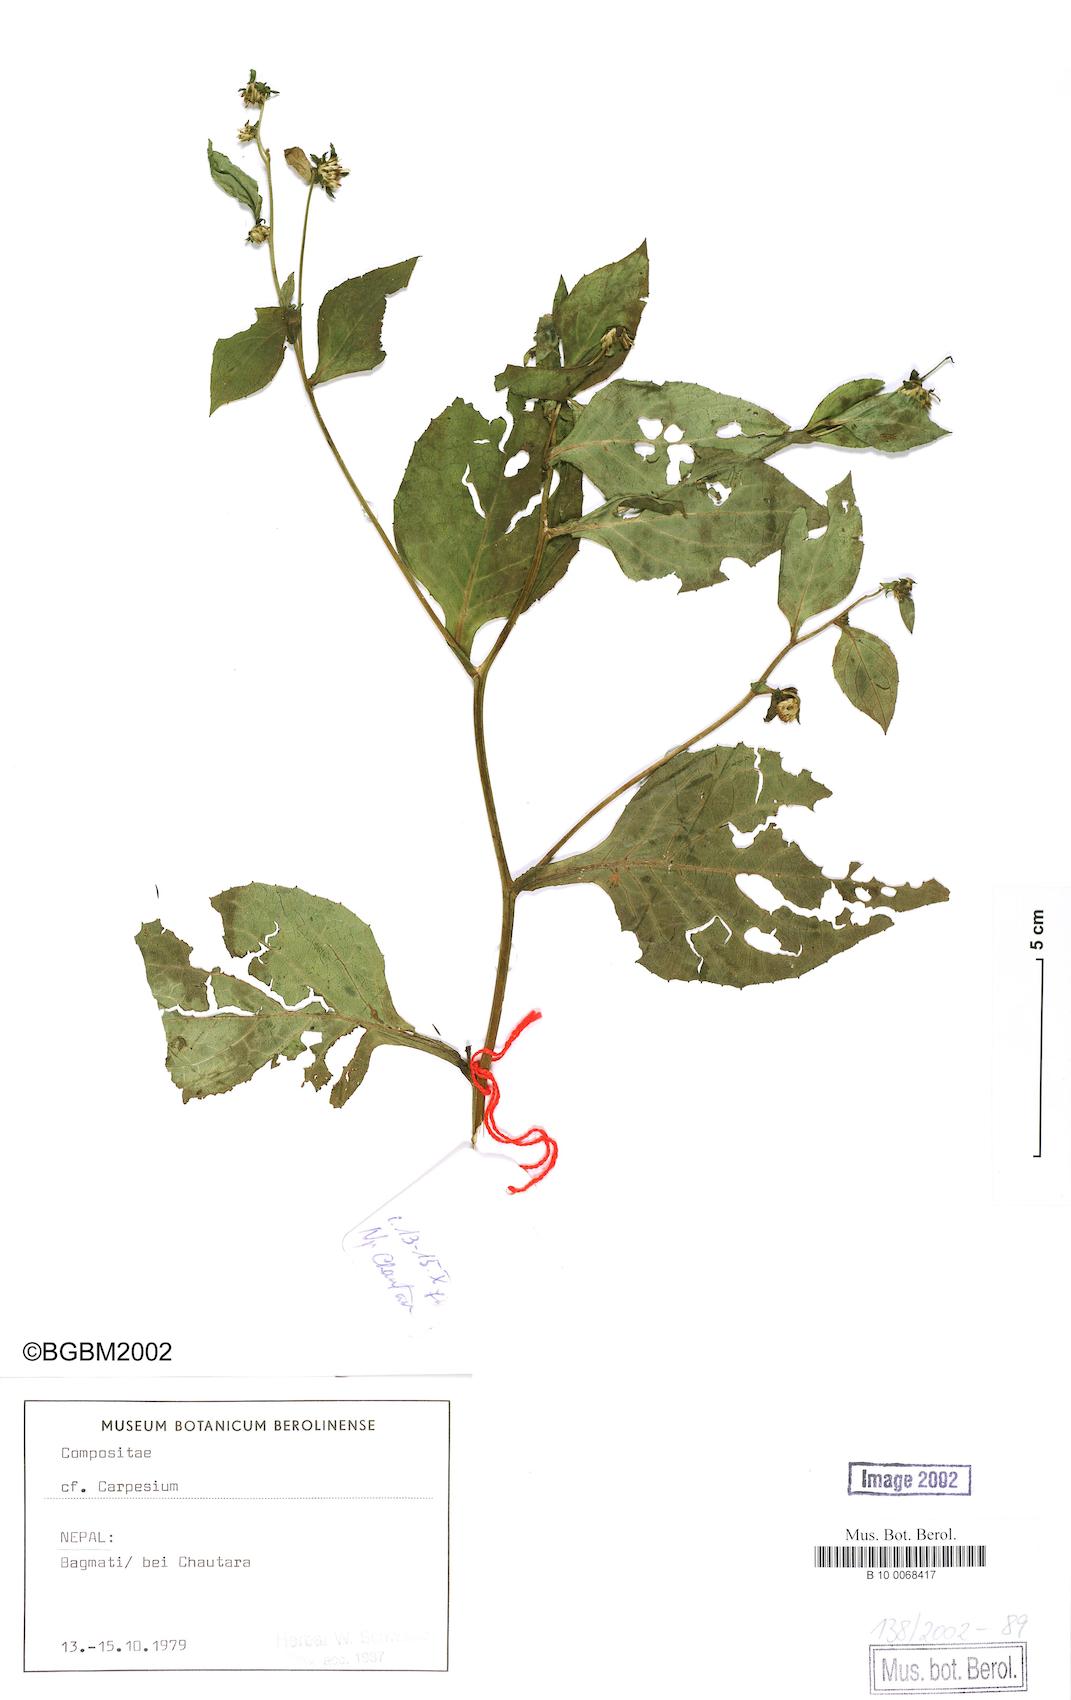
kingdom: Plantae
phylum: Tracheophyta
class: Magnoliopsida
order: Asterales
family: Asteraceae
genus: Carpesium
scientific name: Carpesium triste
